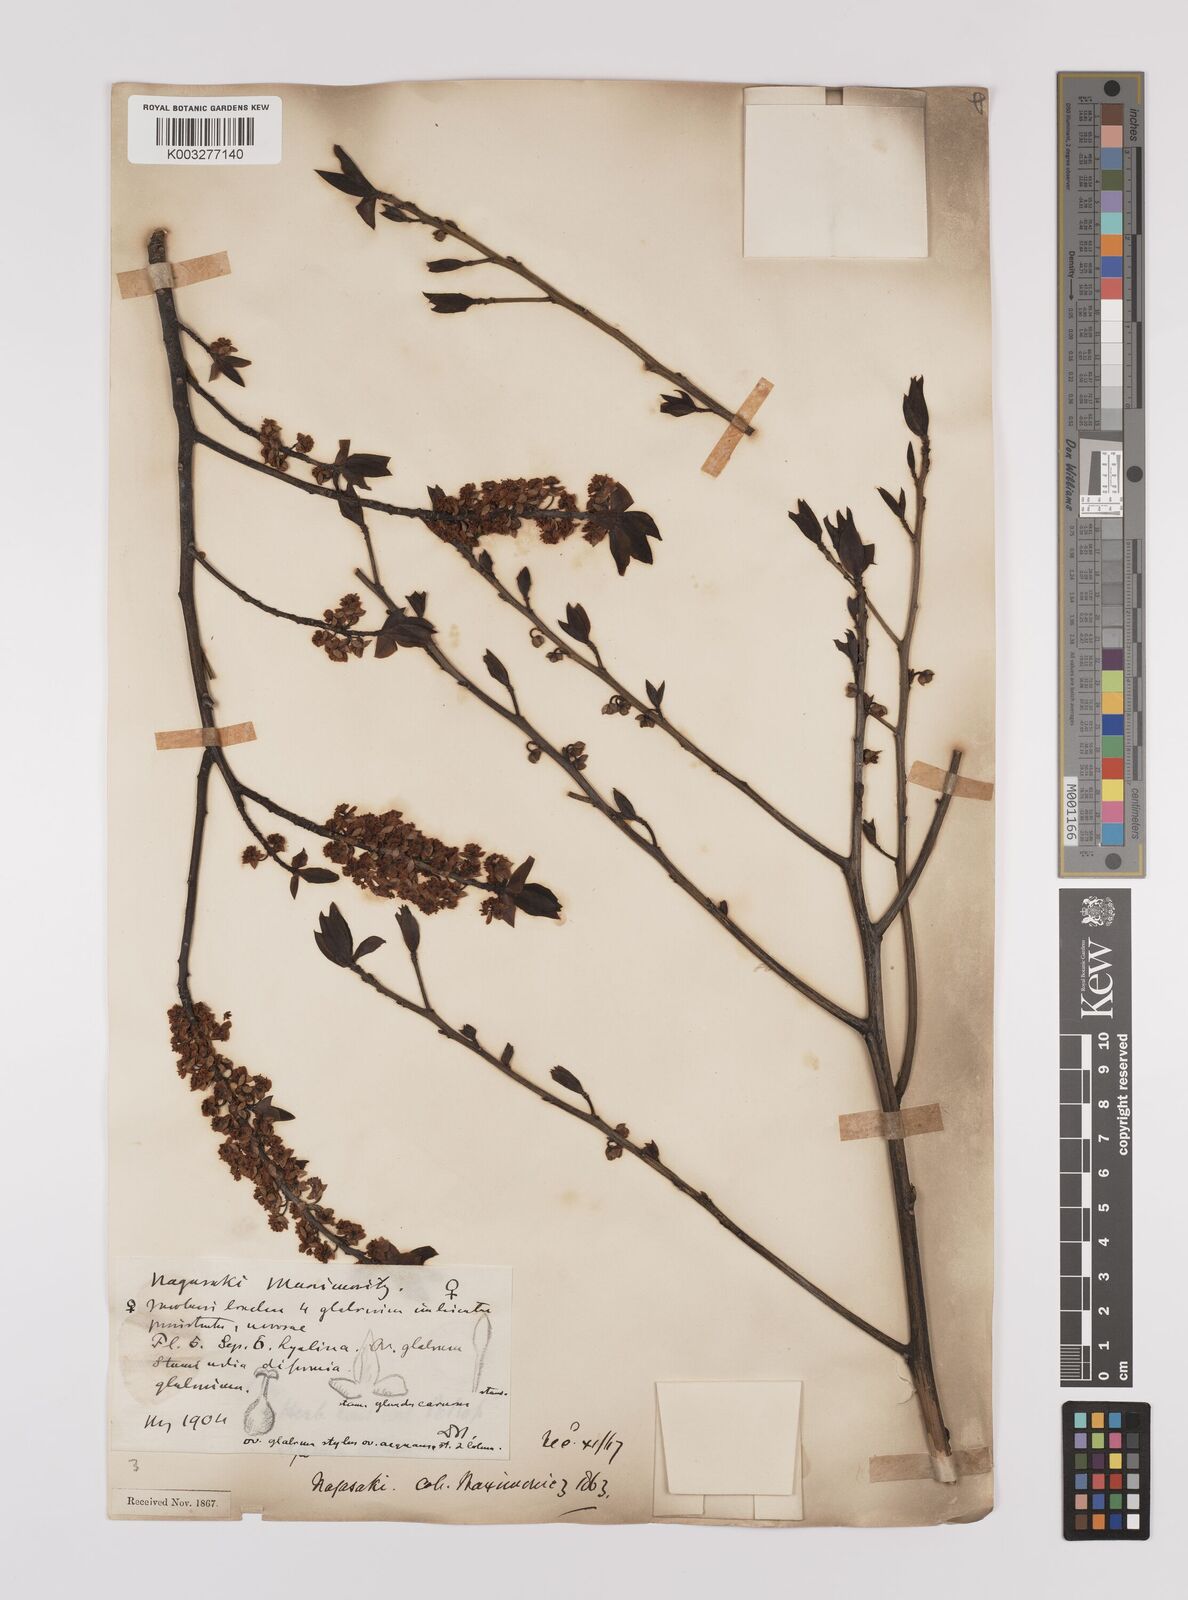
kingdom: Plantae
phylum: Tracheophyta
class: Magnoliopsida
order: Laurales
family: Lauraceae
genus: Litsea
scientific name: Litsea cubeba
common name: Mountain-pepper
